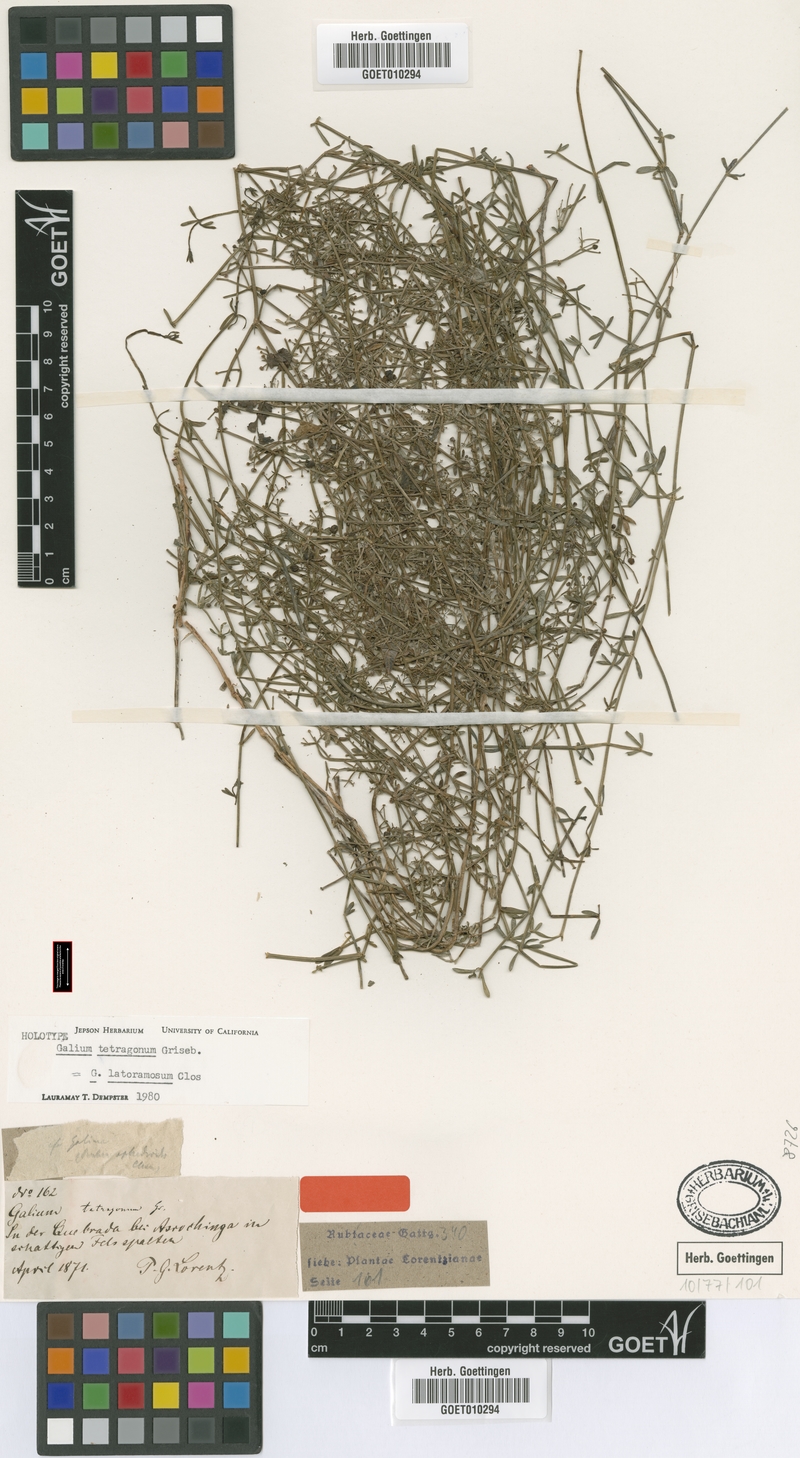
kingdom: Plantae
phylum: Tracheophyta
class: Magnoliopsida
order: Gentianales
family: Rubiaceae
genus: Galium
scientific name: Galium latoramosum
